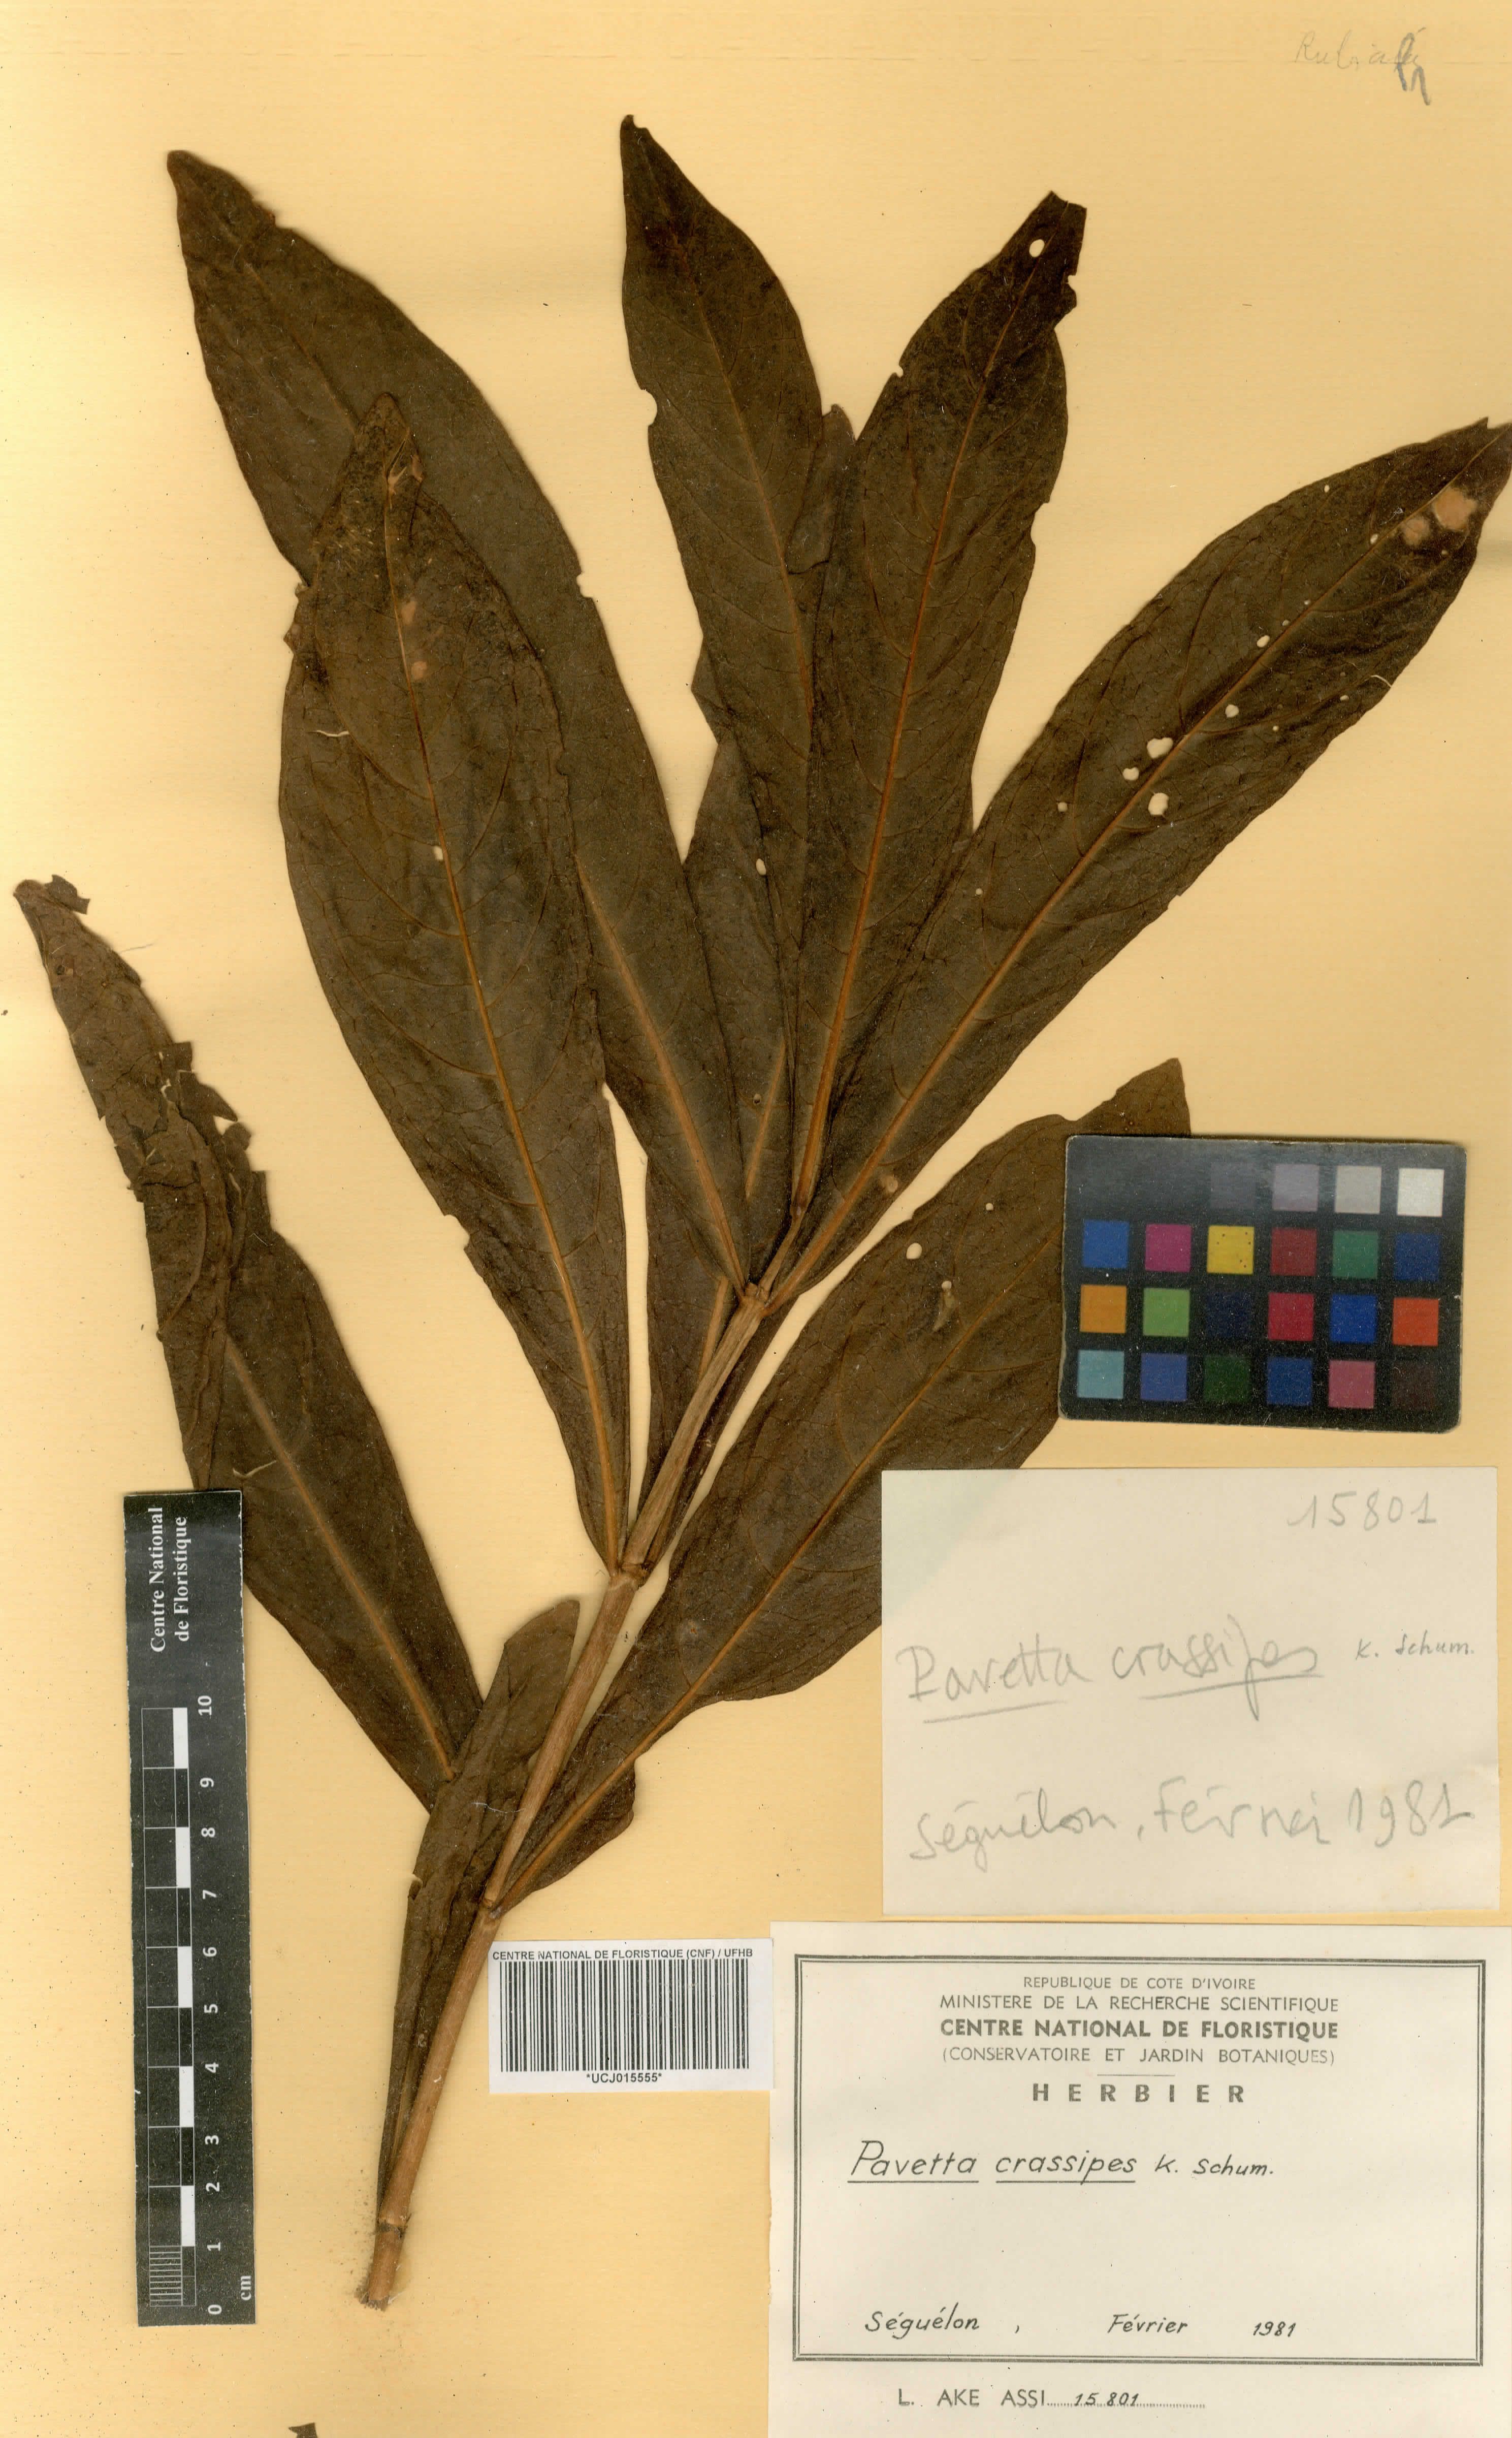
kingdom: Plantae
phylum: Tracheophyta
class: Magnoliopsida
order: Gentianales
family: Rubiaceae
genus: Pavetta
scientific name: Pavetta crassipes
